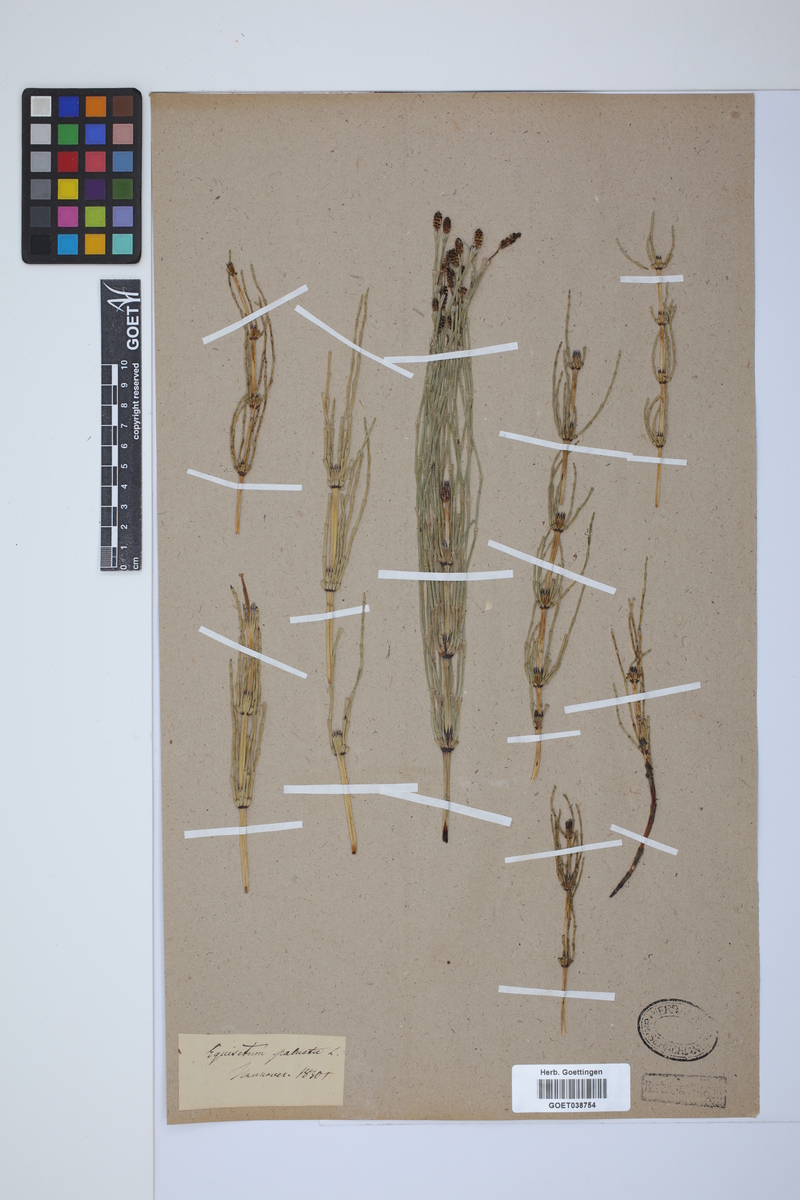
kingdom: Plantae
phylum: Tracheophyta
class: Polypodiopsida
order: Equisetales
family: Equisetaceae
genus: Equisetum
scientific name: Equisetum palustre
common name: Marsh horsetail
